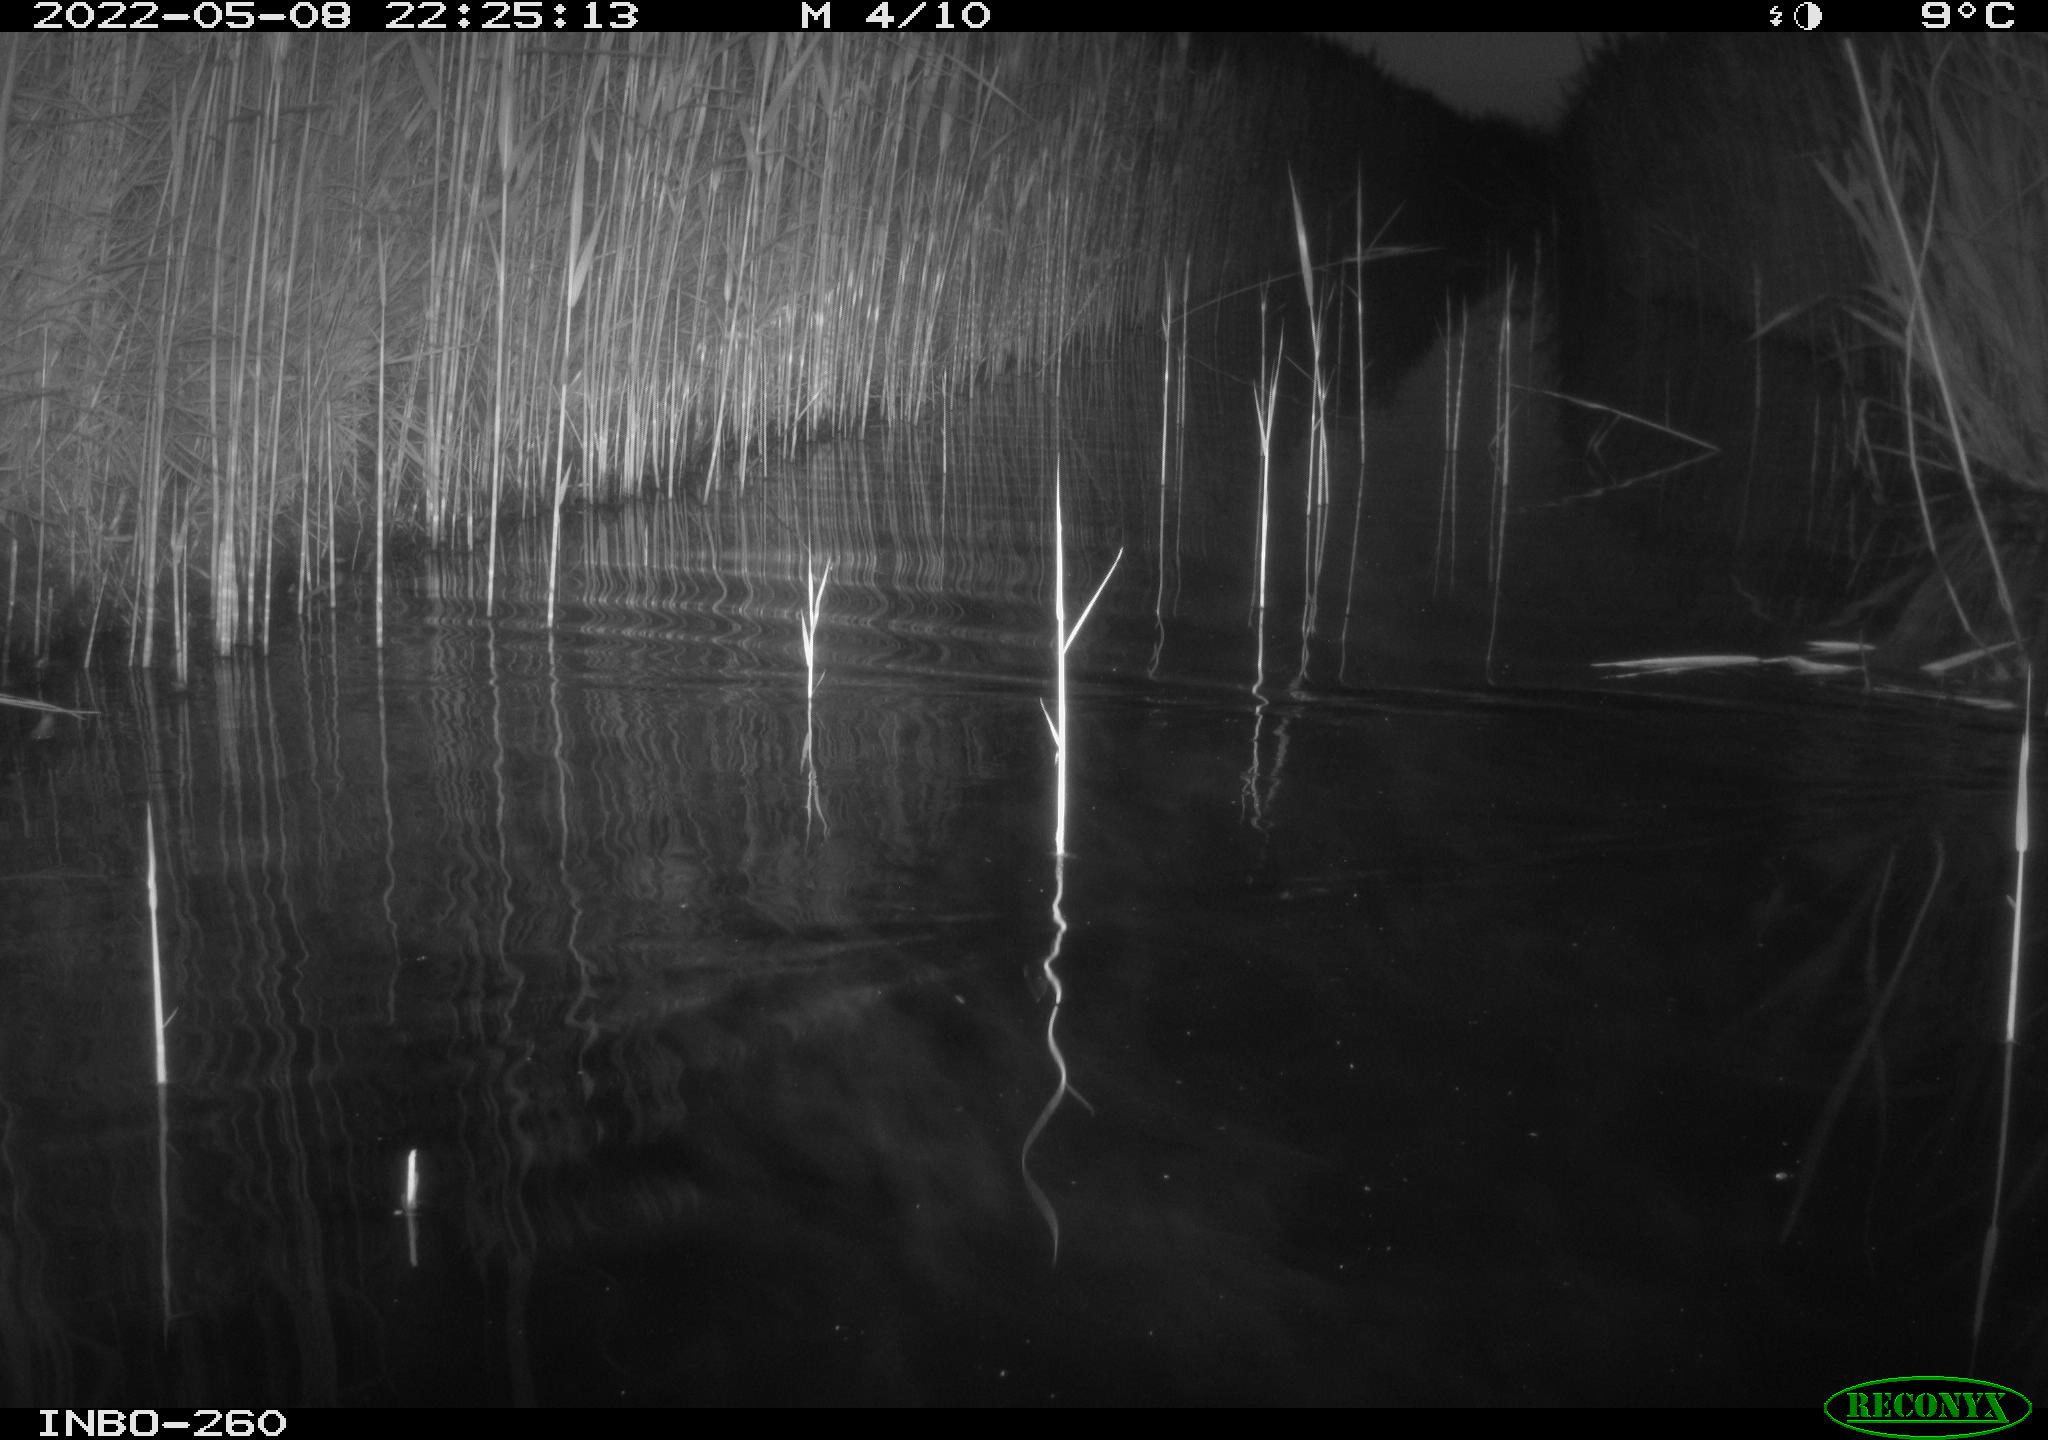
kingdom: Animalia
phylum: Chordata
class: Mammalia
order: Rodentia
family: Muridae
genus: Rattus
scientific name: Rattus norvegicus
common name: Brown rat
